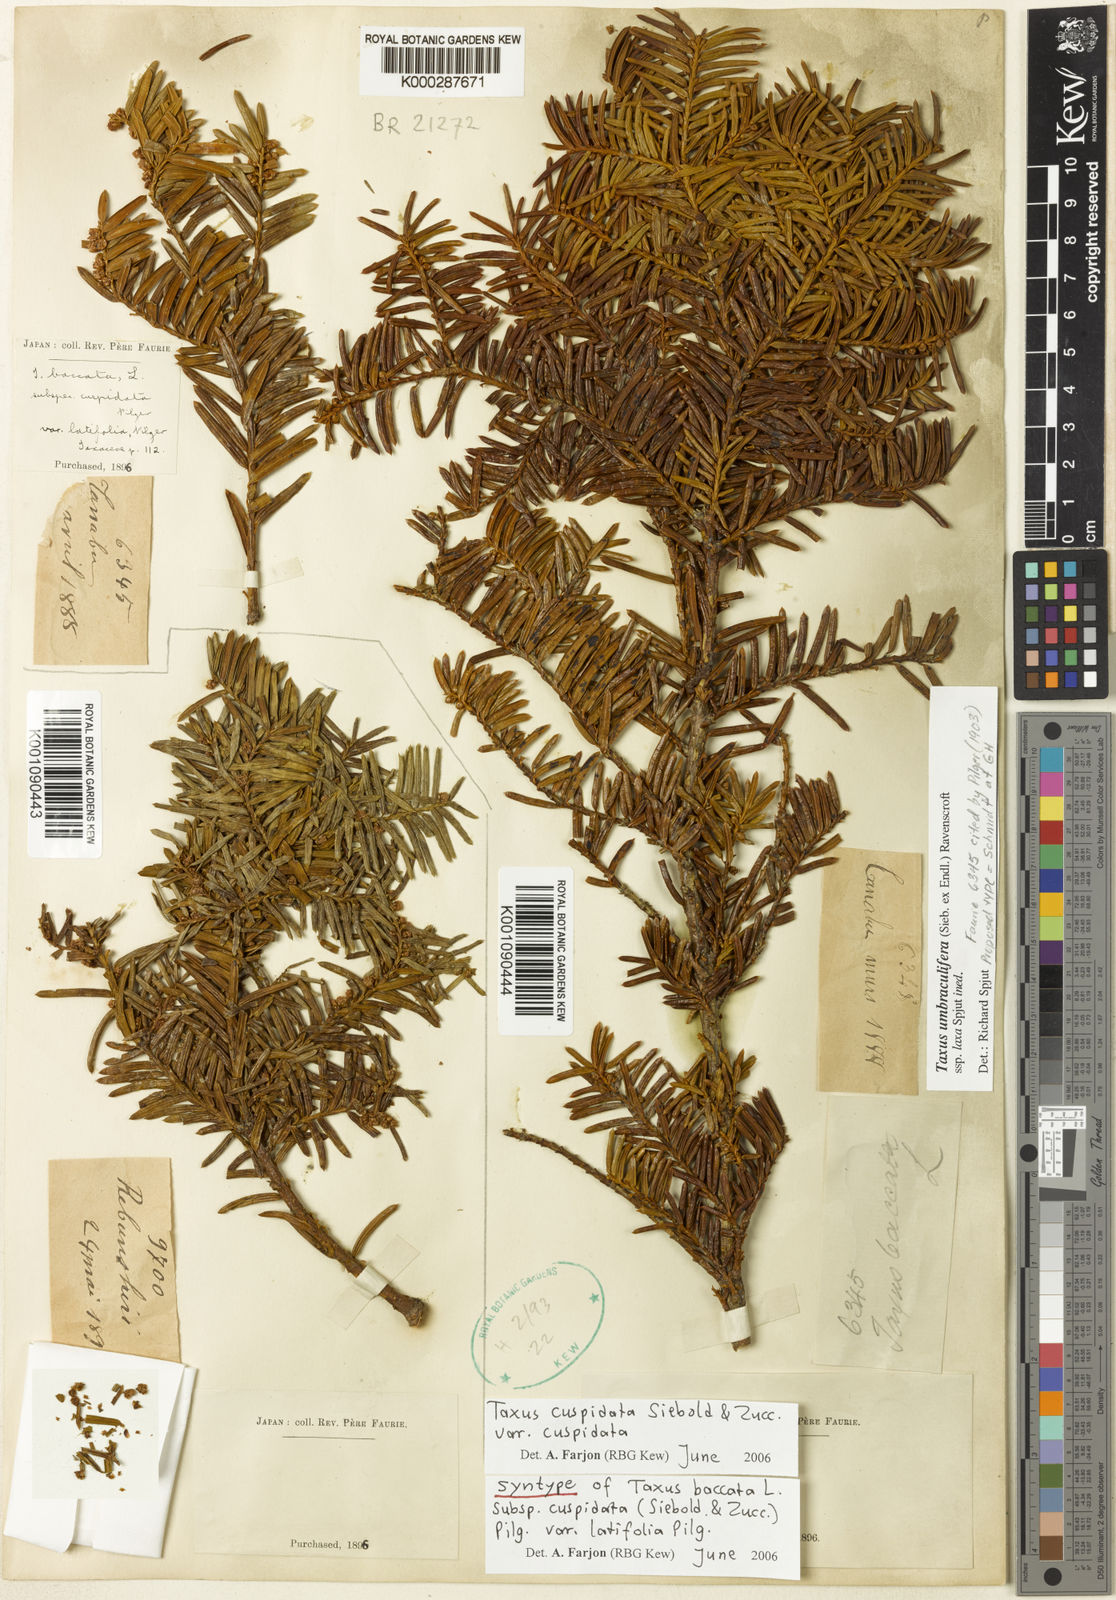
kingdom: Plantae
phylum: Tracheophyta
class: Pinopsida
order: Pinales
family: Taxaceae
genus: Taxus
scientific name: Taxus cuspidata
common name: Japanese yew
